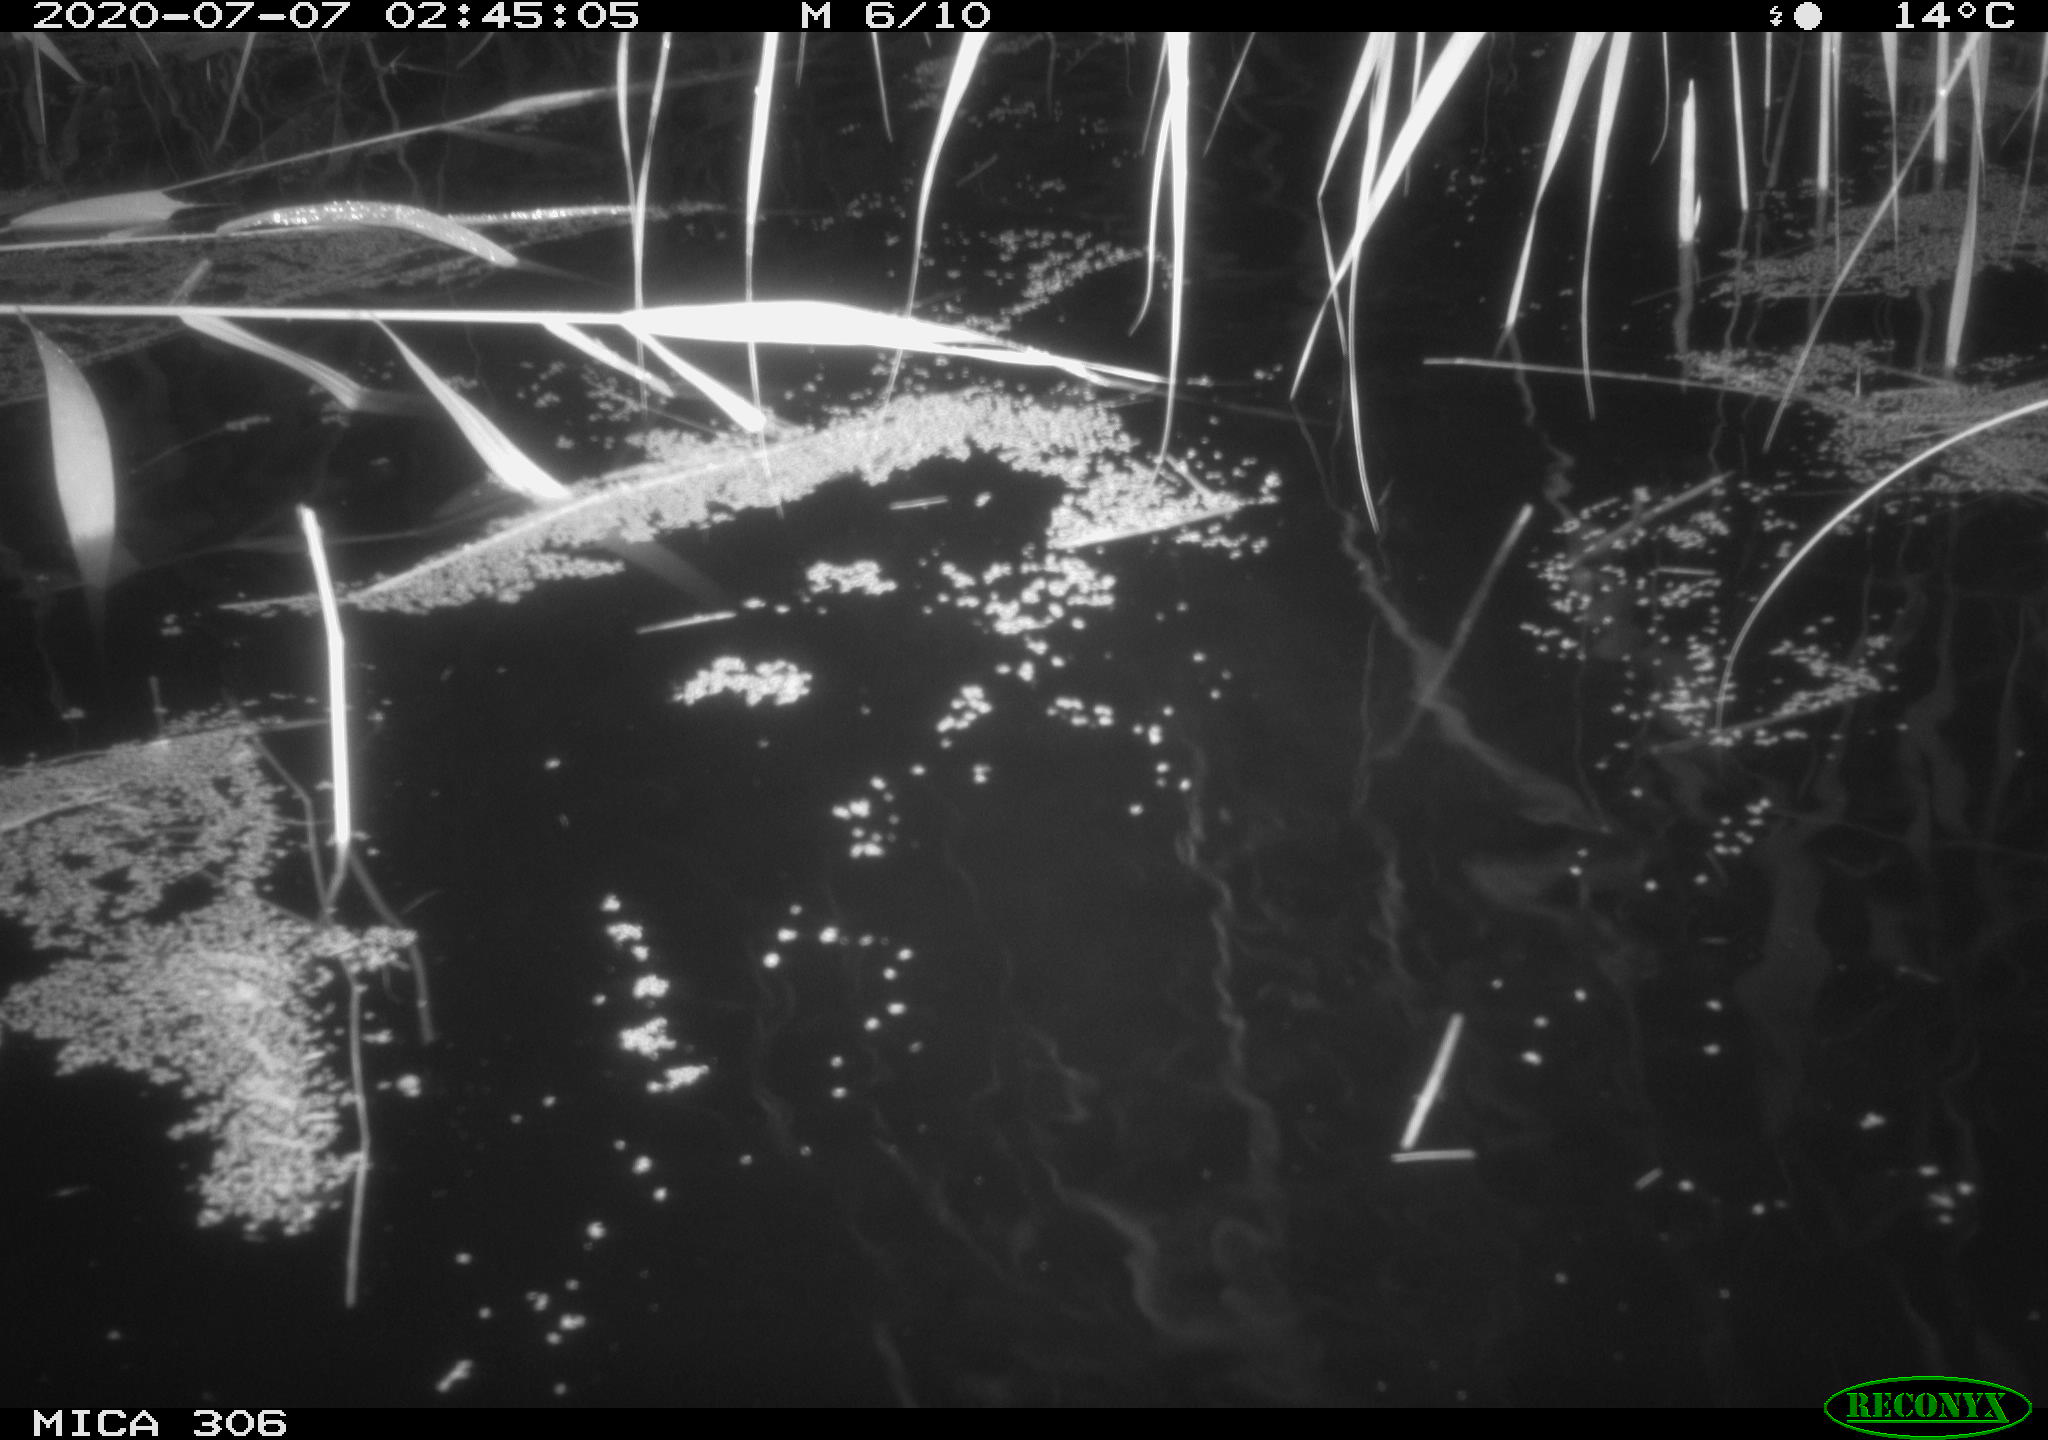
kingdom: Animalia
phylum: Chordata
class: Mammalia
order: Rodentia
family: Muridae
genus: Rattus
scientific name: Rattus norvegicus
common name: Brown rat
